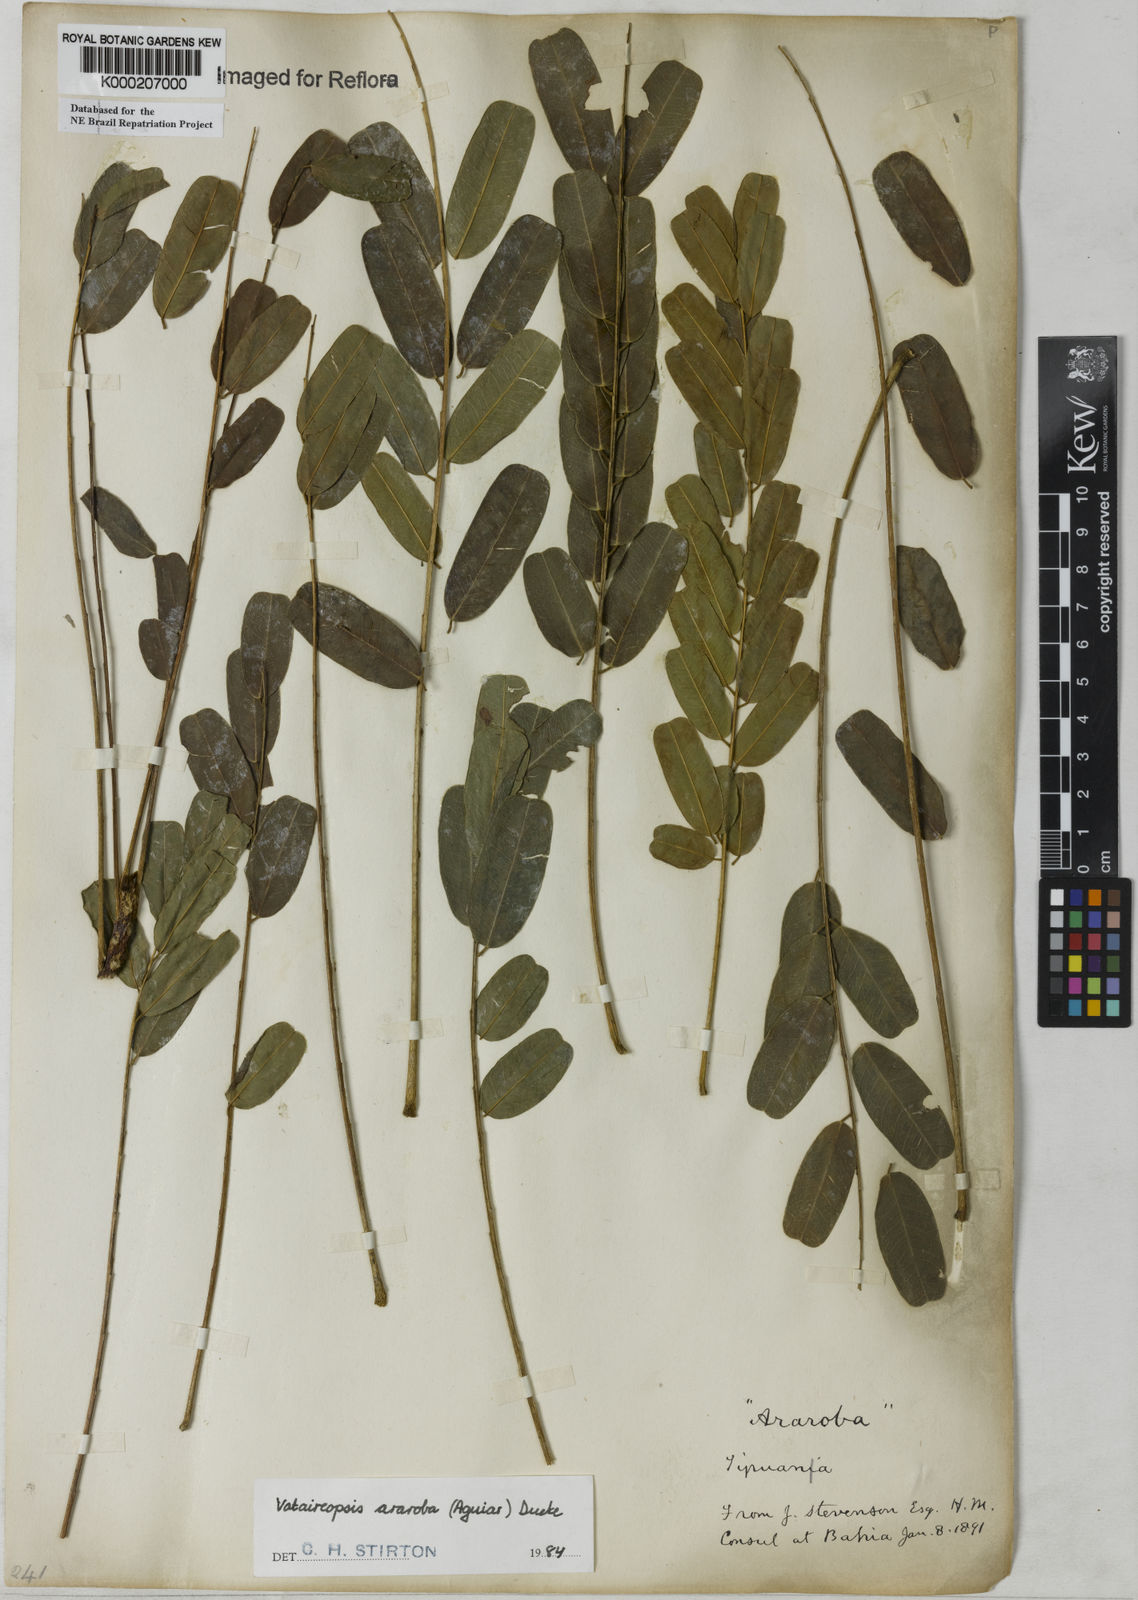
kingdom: Plantae
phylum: Tracheophyta
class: Magnoliopsida
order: Fabales
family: Fabaceae
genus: Vataireopsis
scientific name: Vataireopsis araroba
